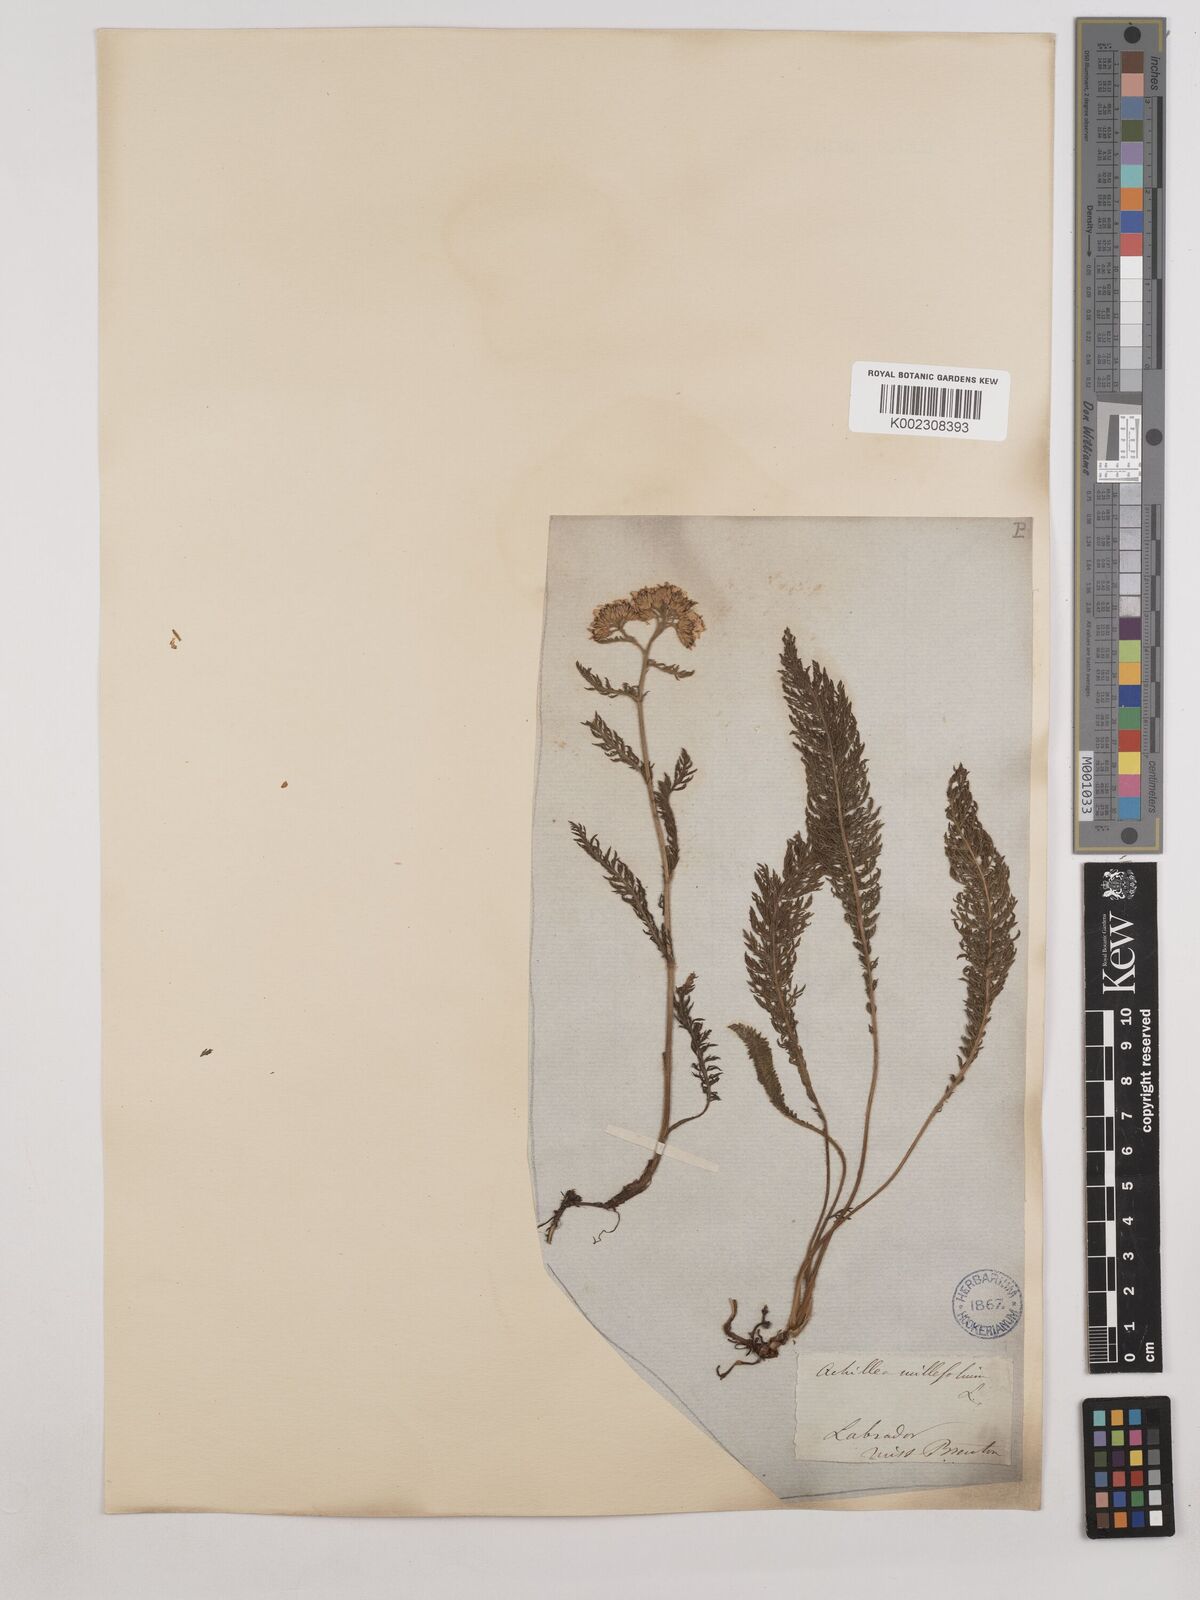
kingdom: Plantae
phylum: Tracheophyta
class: Magnoliopsida
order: Asterales
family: Asteraceae
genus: Achillea
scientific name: Achillea millefolium
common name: Yarrow
